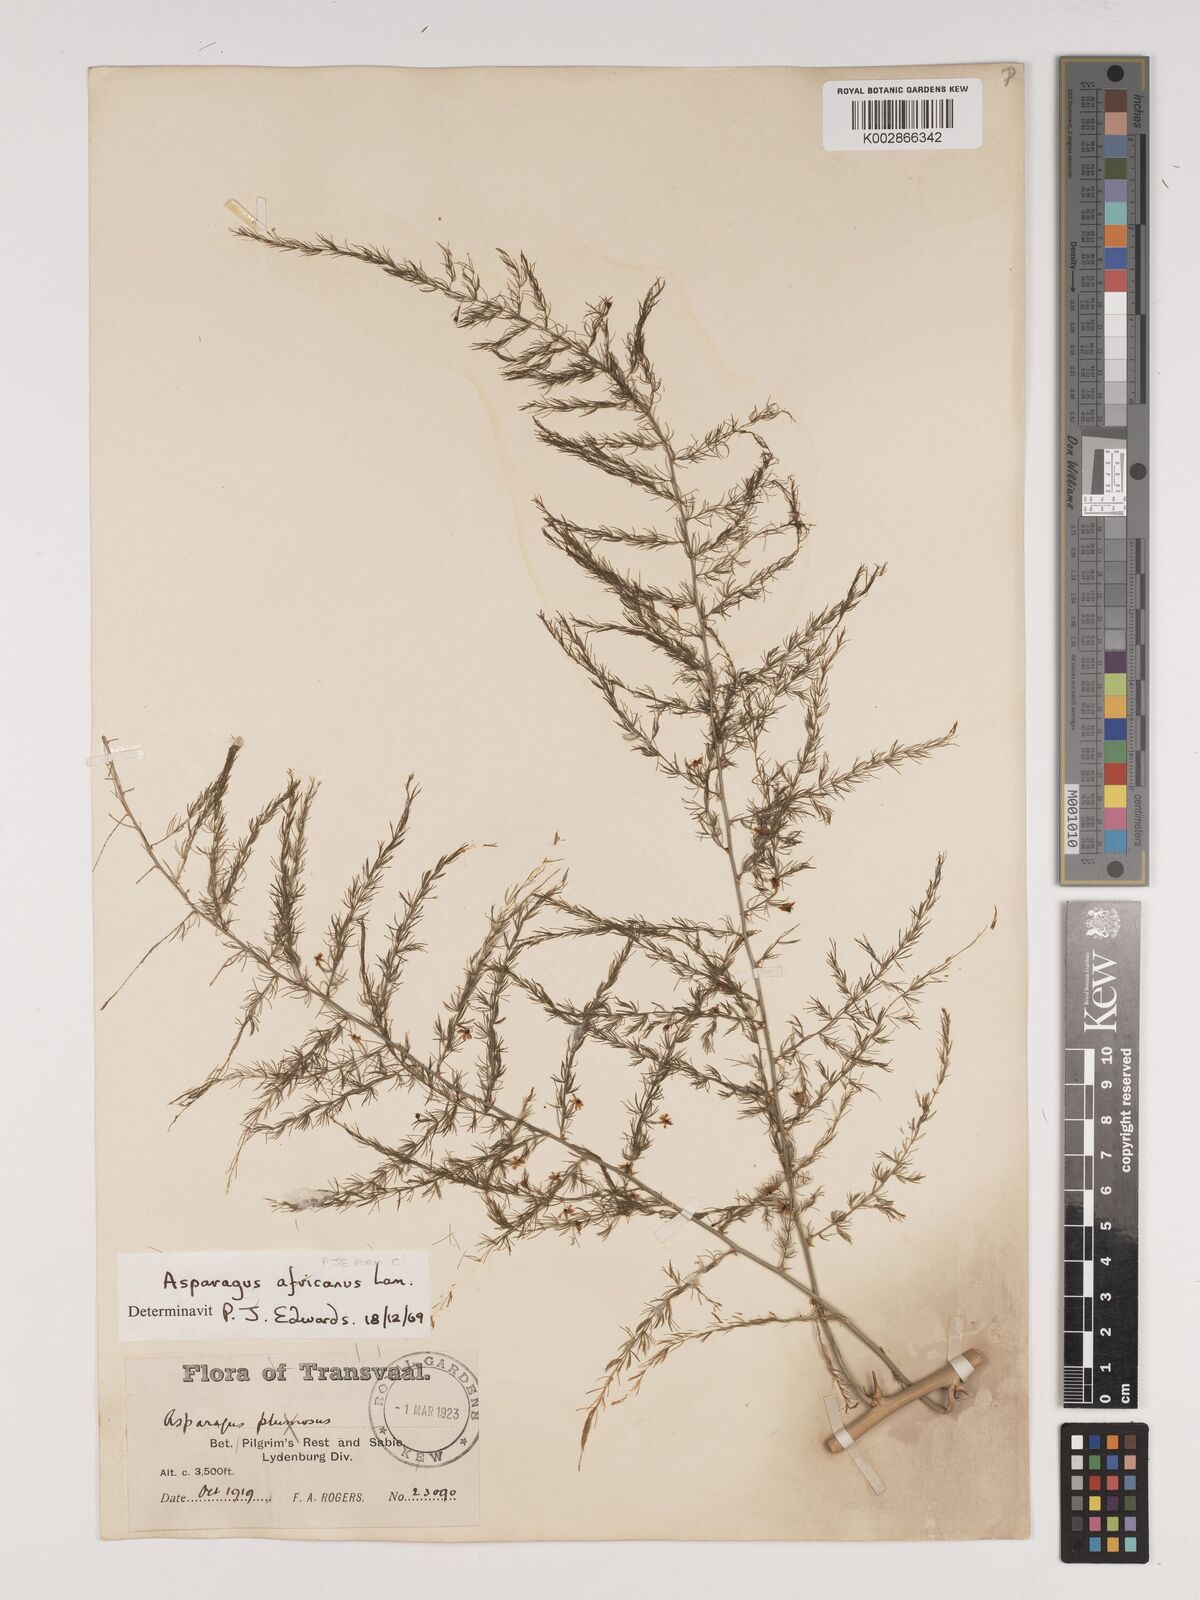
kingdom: Plantae
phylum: Tracheophyta
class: Liliopsida
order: Asparagales
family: Asparagaceae
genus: Asparagus
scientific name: Asparagus africanus
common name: Asparagus-fern
